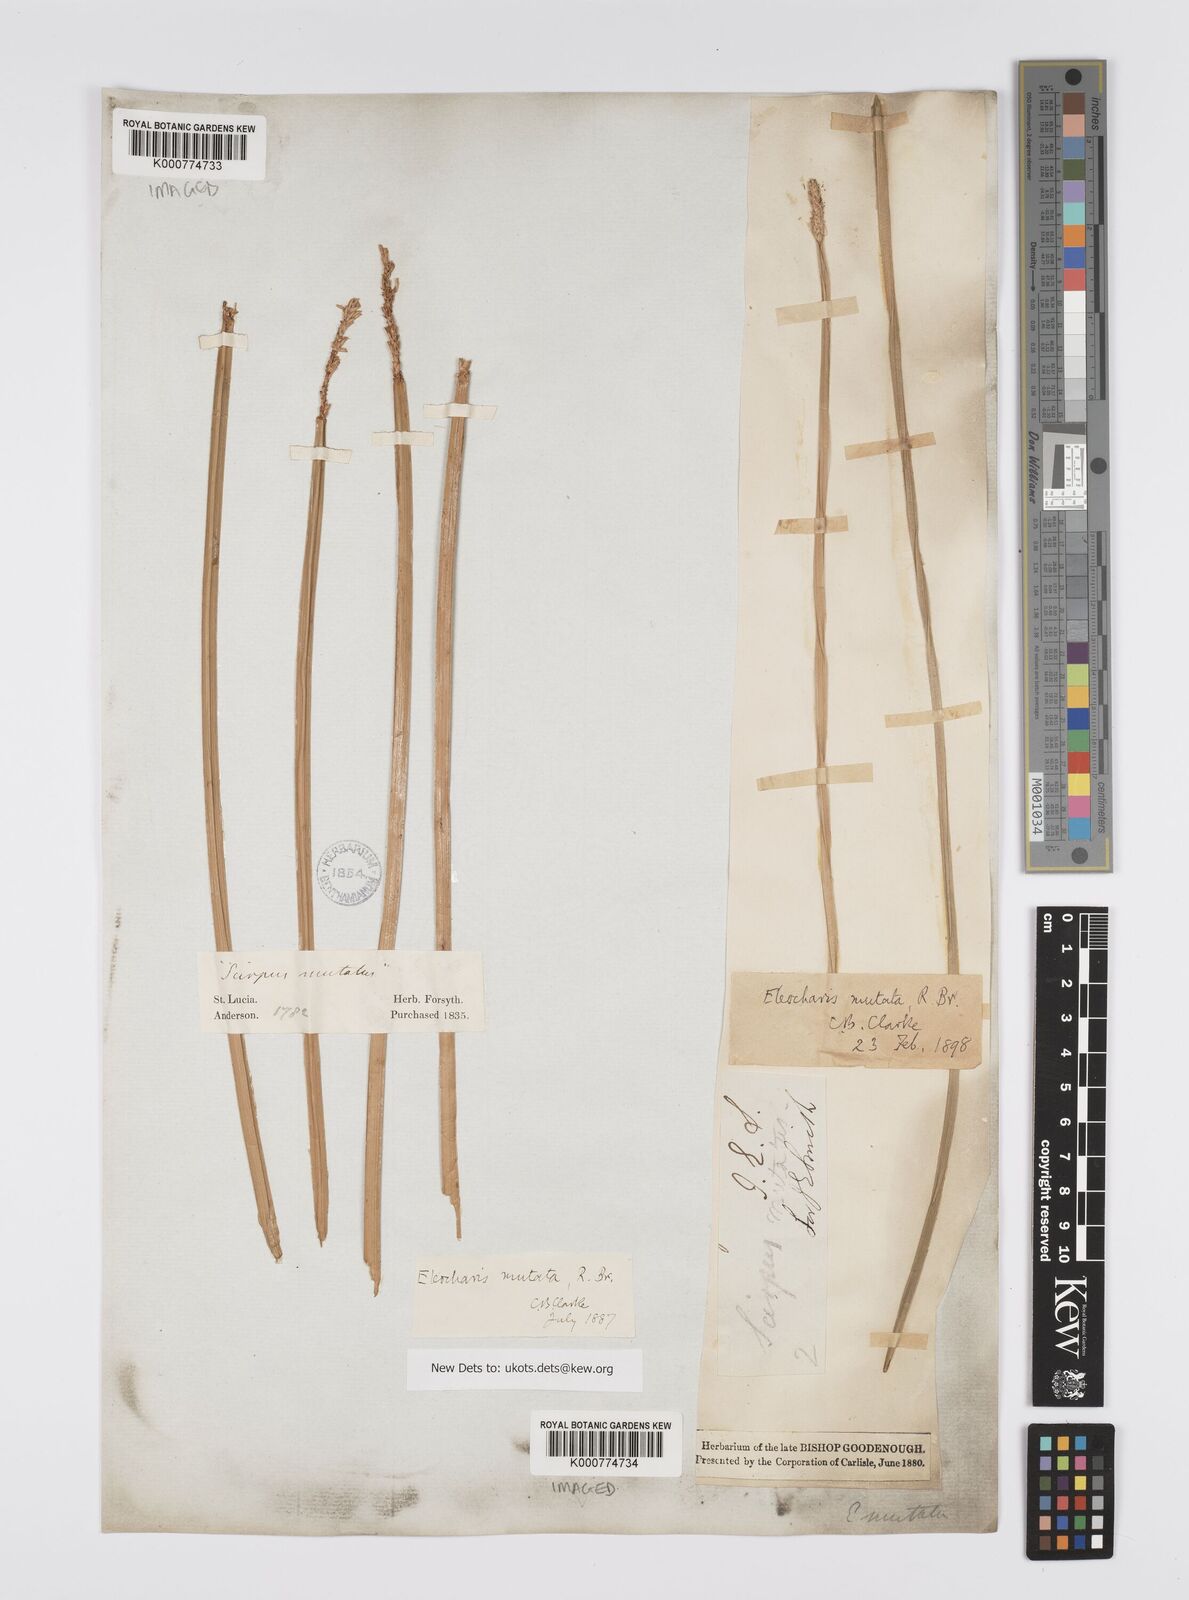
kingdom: Plantae
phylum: Tracheophyta
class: Liliopsida
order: Poales
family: Cyperaceae
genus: Eleocharis
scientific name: Eleocharis mutata
